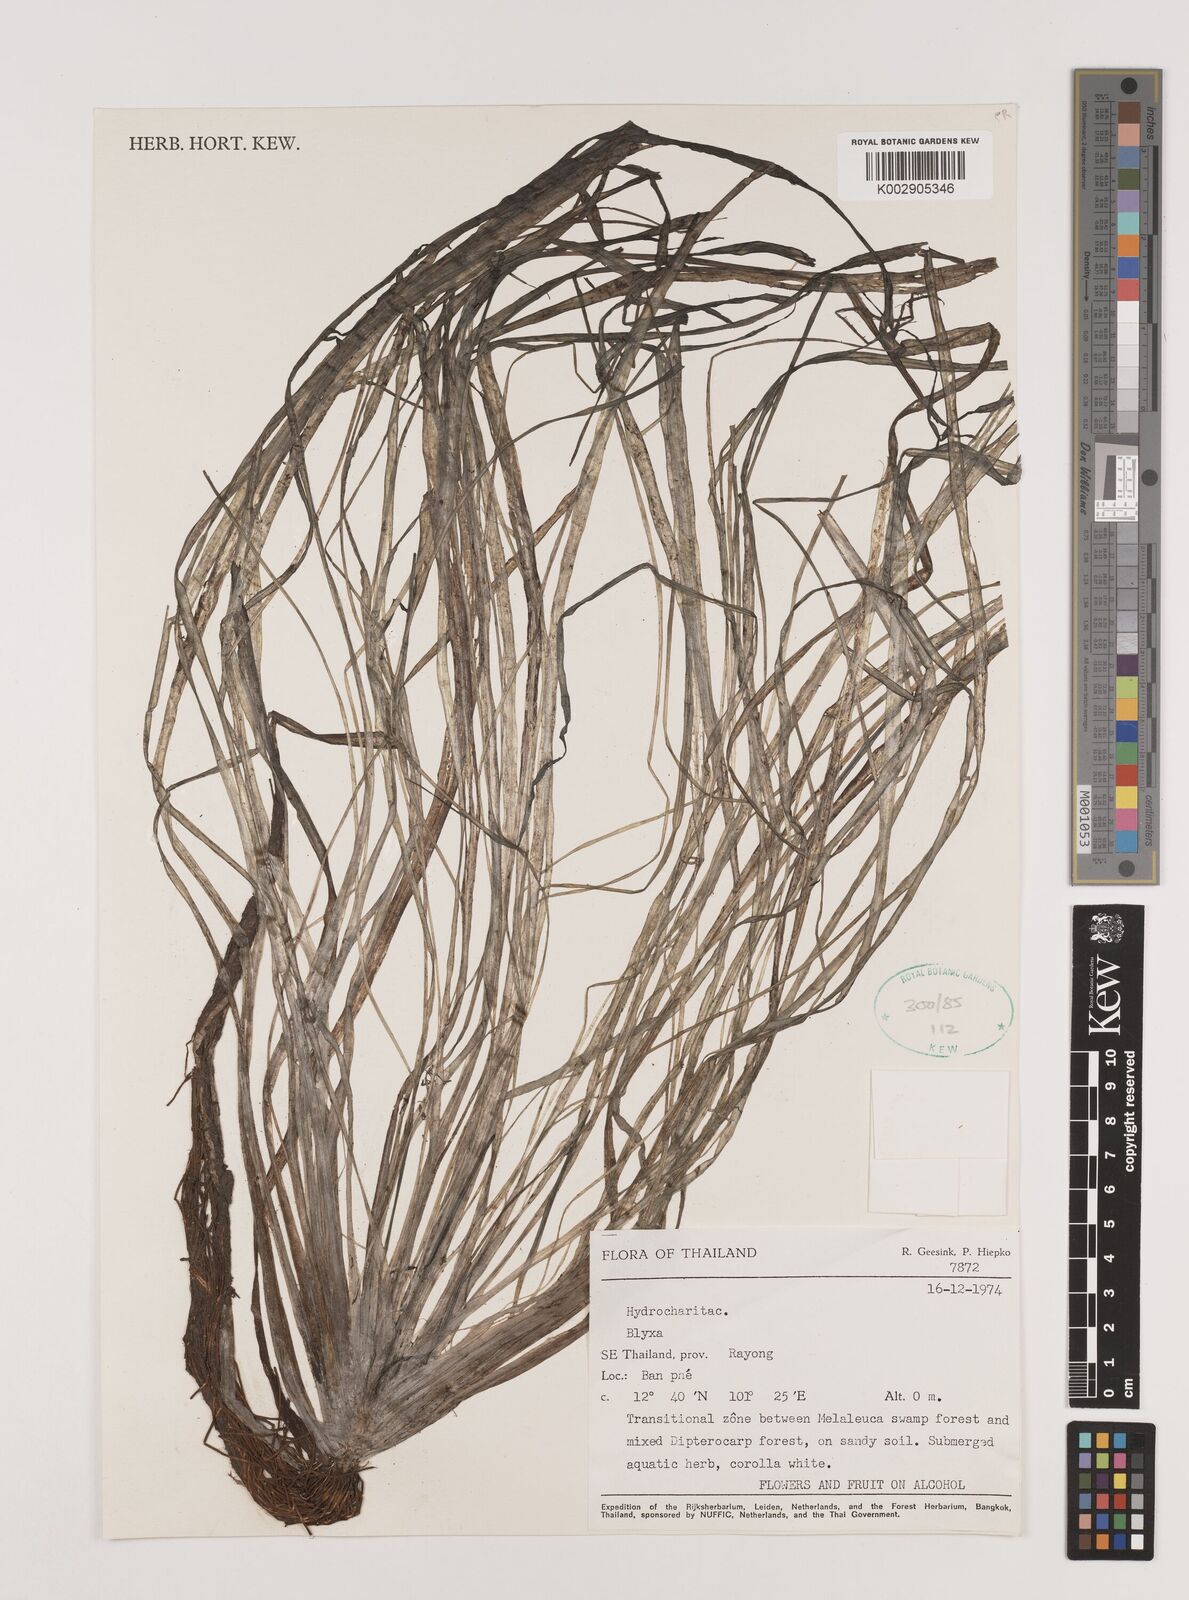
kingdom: Plantae
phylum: Tracheophyta
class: Liliopsida
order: Alismatales
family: Hydrocharitaceae
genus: Blyxa
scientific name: Blyxa
